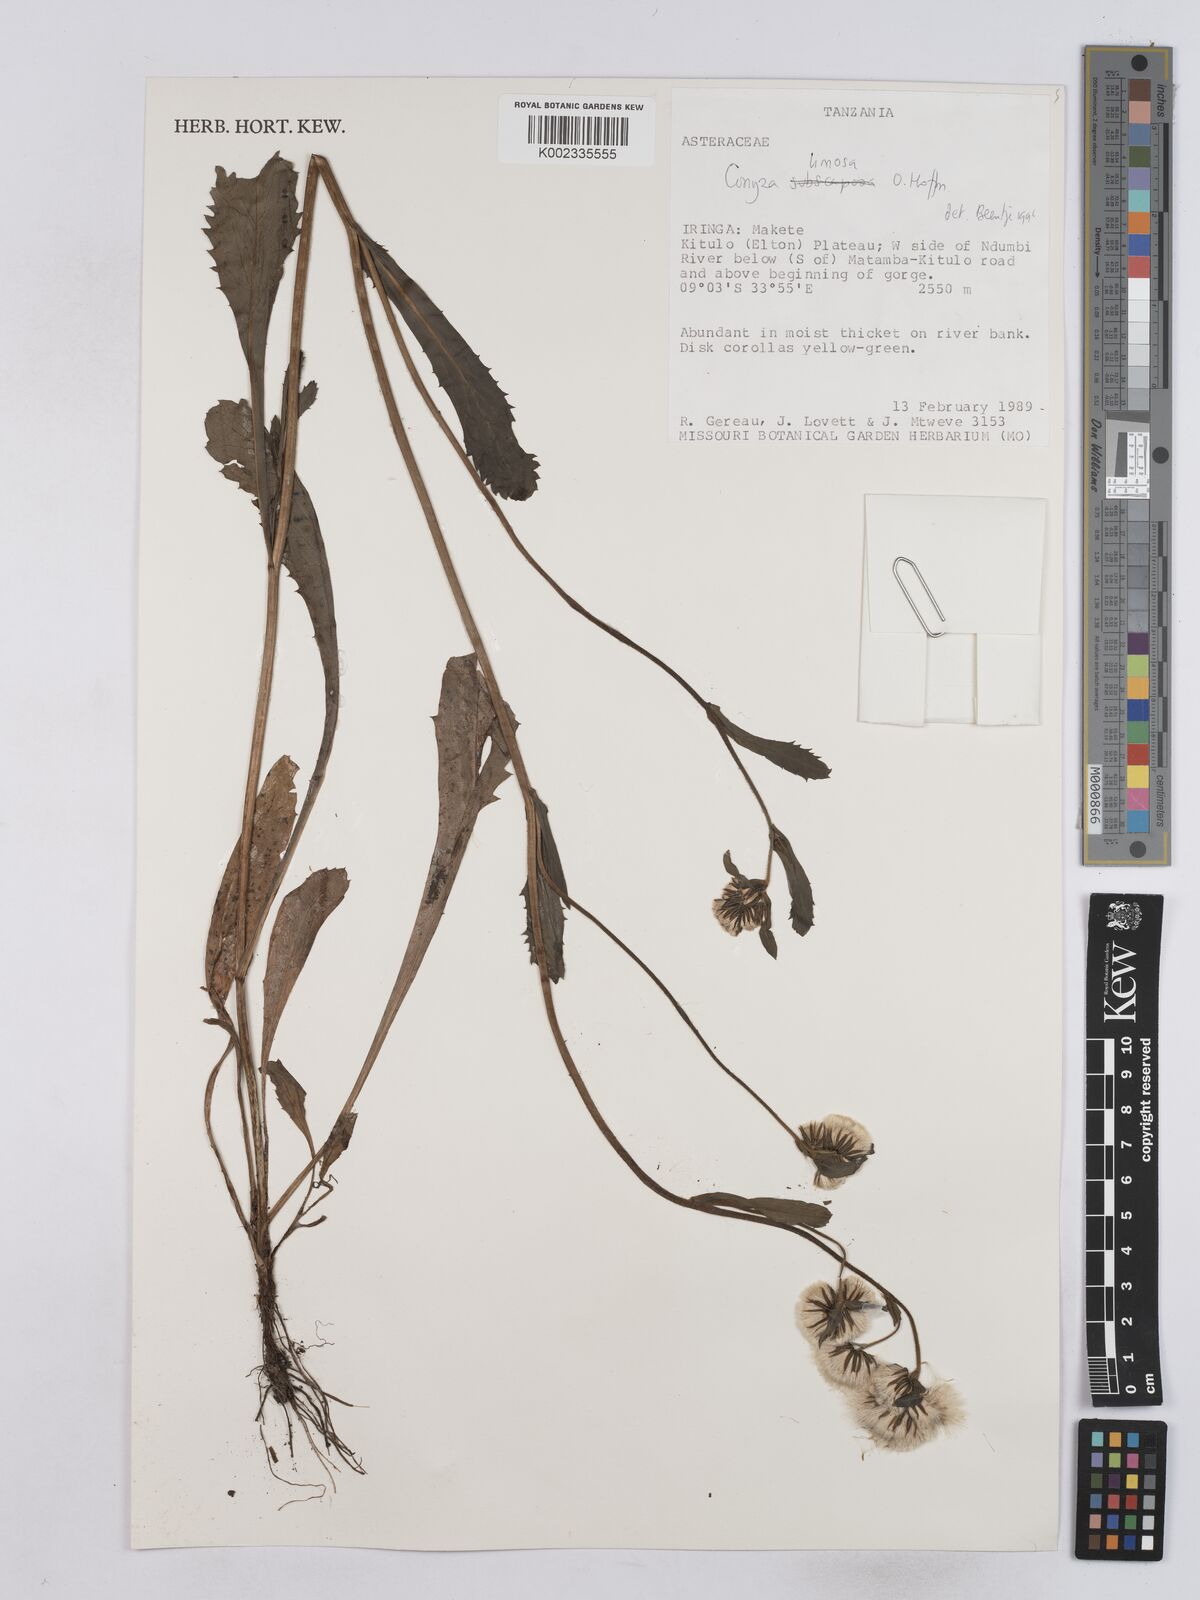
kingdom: Plantae
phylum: Tracheophyta
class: Magnoliopsida
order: Asterales
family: Asteraceae
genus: Conyza
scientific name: Conyza limosa
